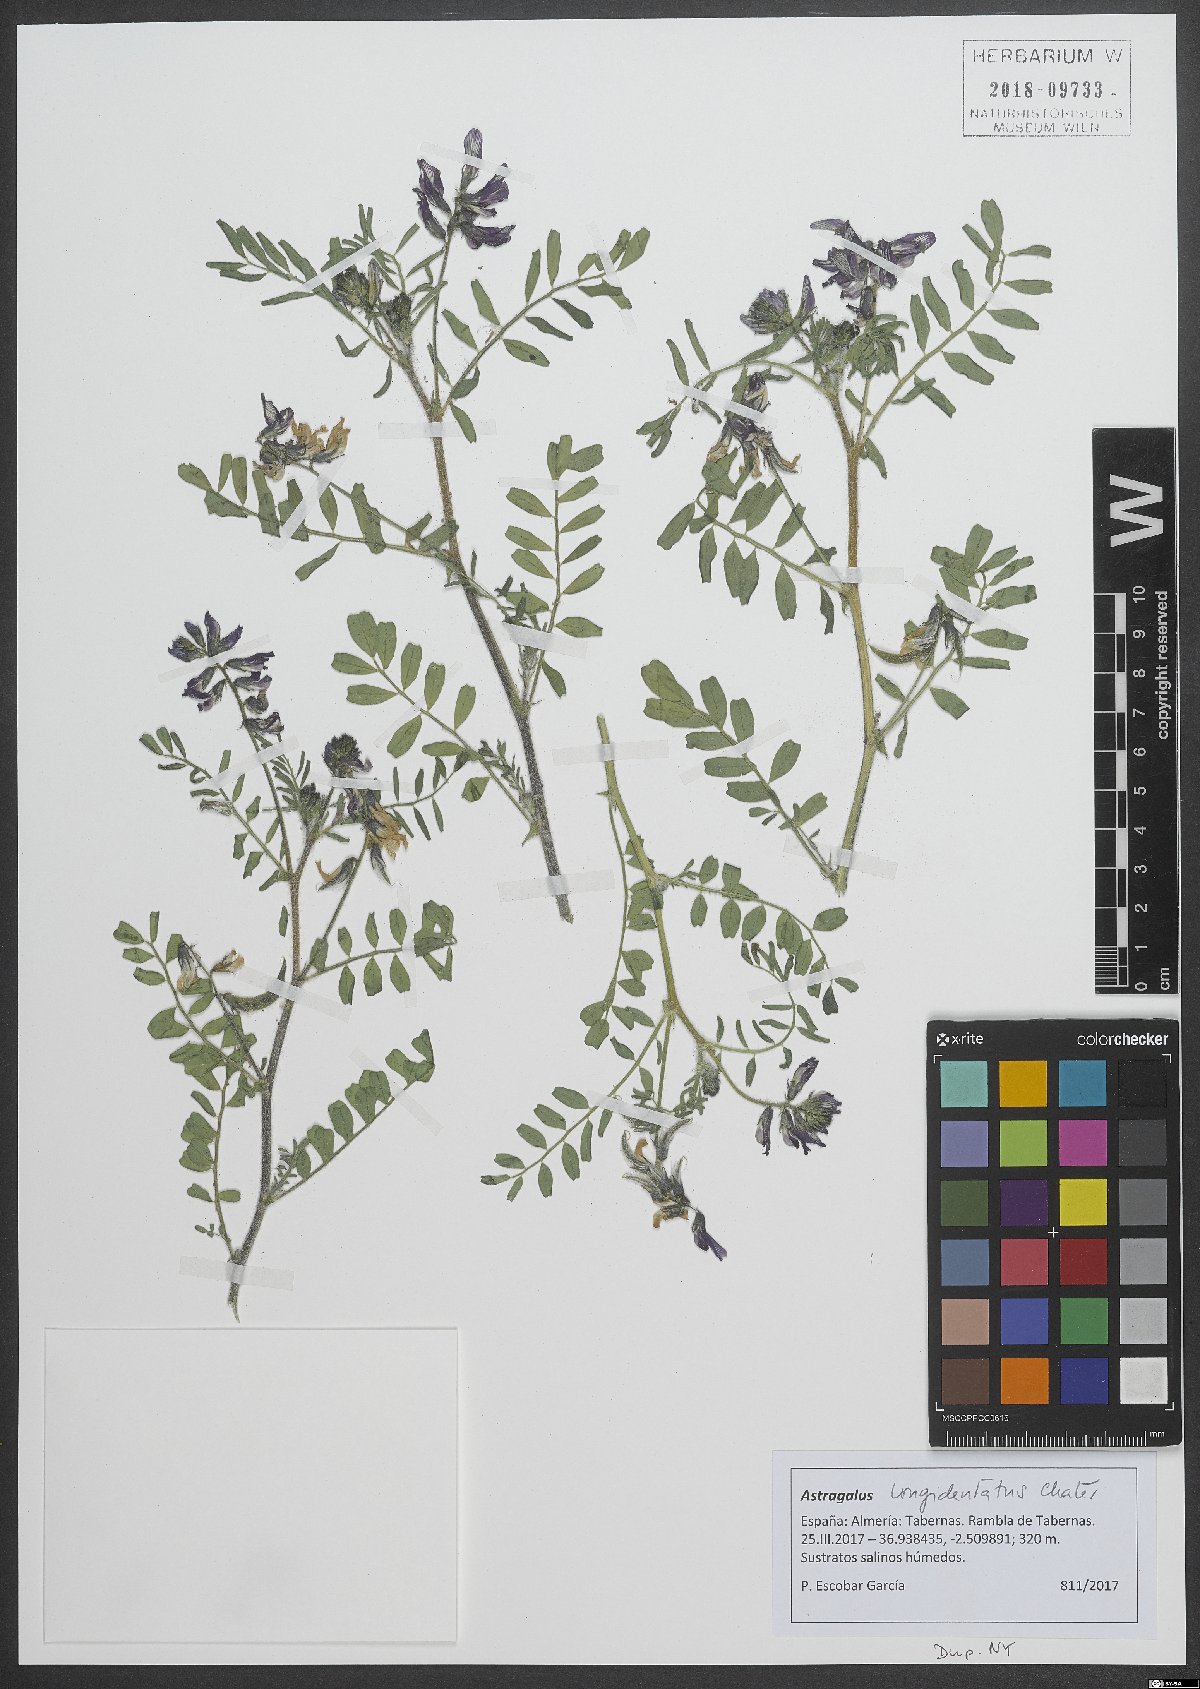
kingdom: Plantae
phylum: Tracheophyta
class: Magnoliopsida
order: Fabales
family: Fabaceae
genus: Astragalus
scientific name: Astragalus longidentatus
